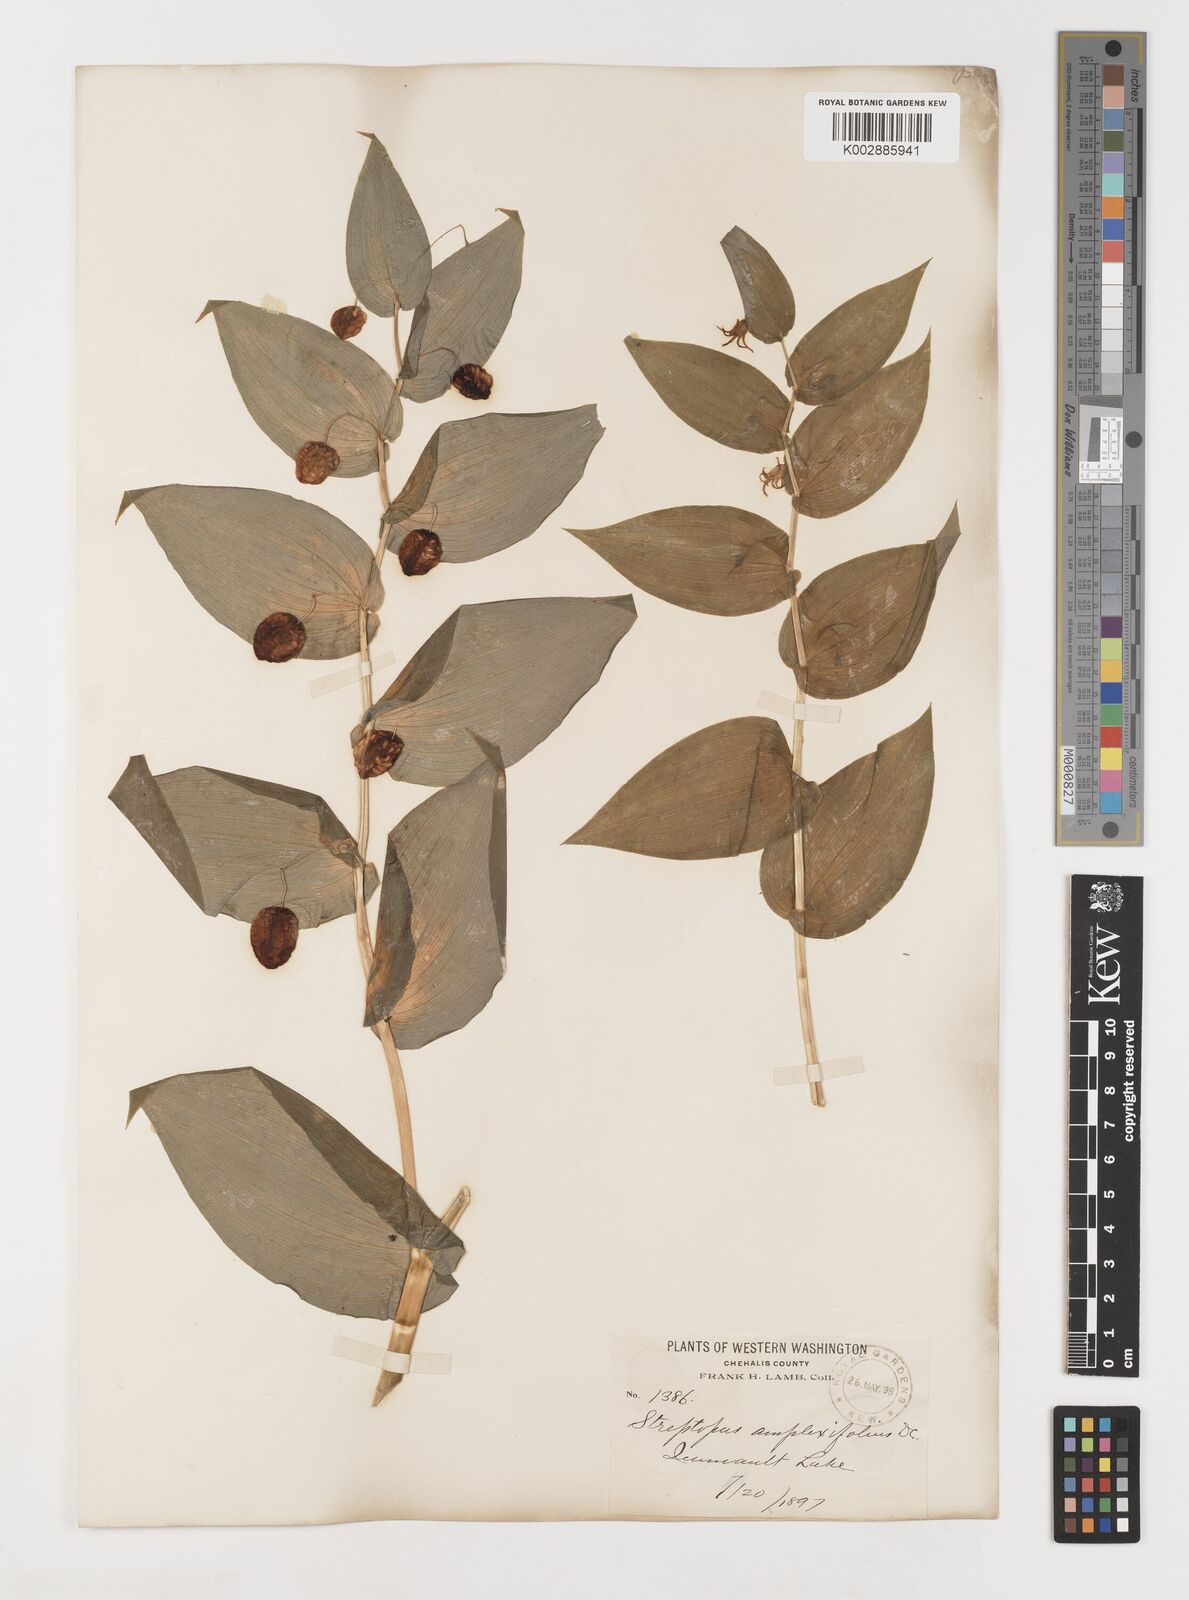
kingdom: Plantae
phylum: Tracheophyta
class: Liliopsida
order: Liliales
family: Liliaceae
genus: Streptopus
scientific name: Streptopus amplexifolius
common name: Clasp twisted stalk
